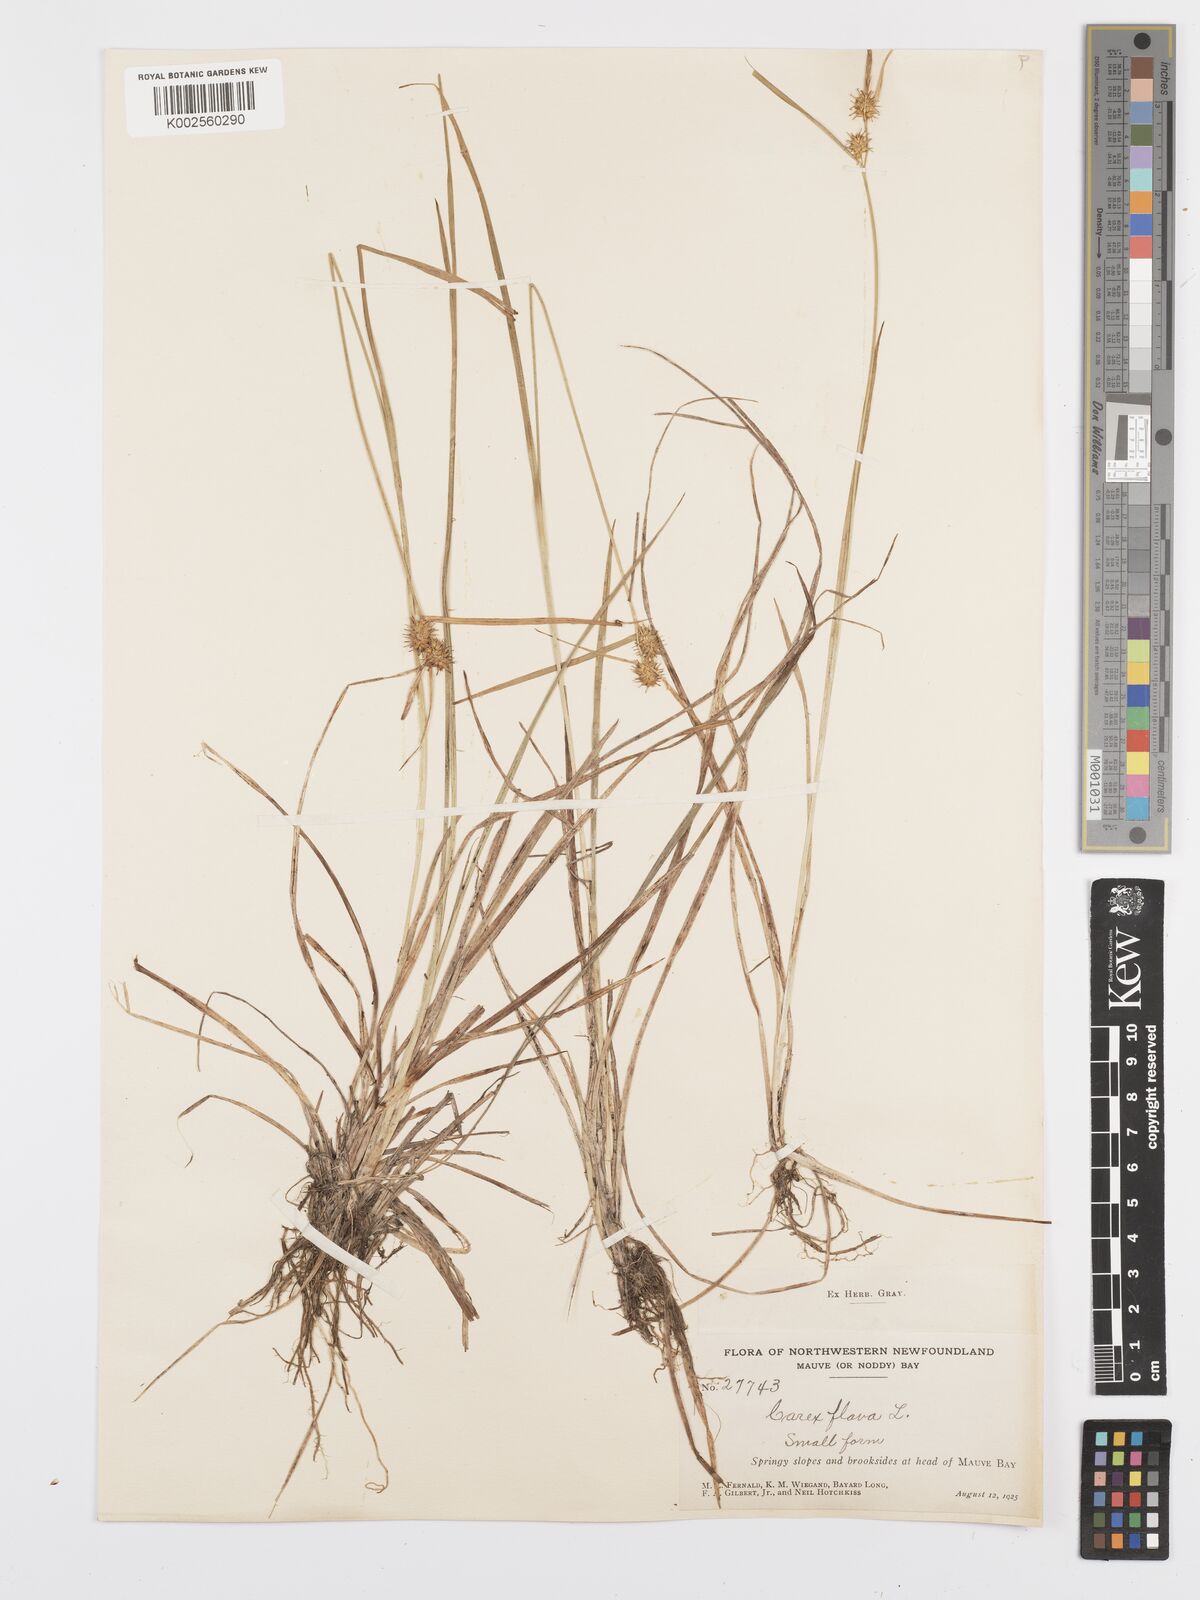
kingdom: Plantae
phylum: Tracheophyta
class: Liliopsida
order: Poales
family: Cyperaceae
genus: Carex
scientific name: Carex flava
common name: Large yellow-sedge
